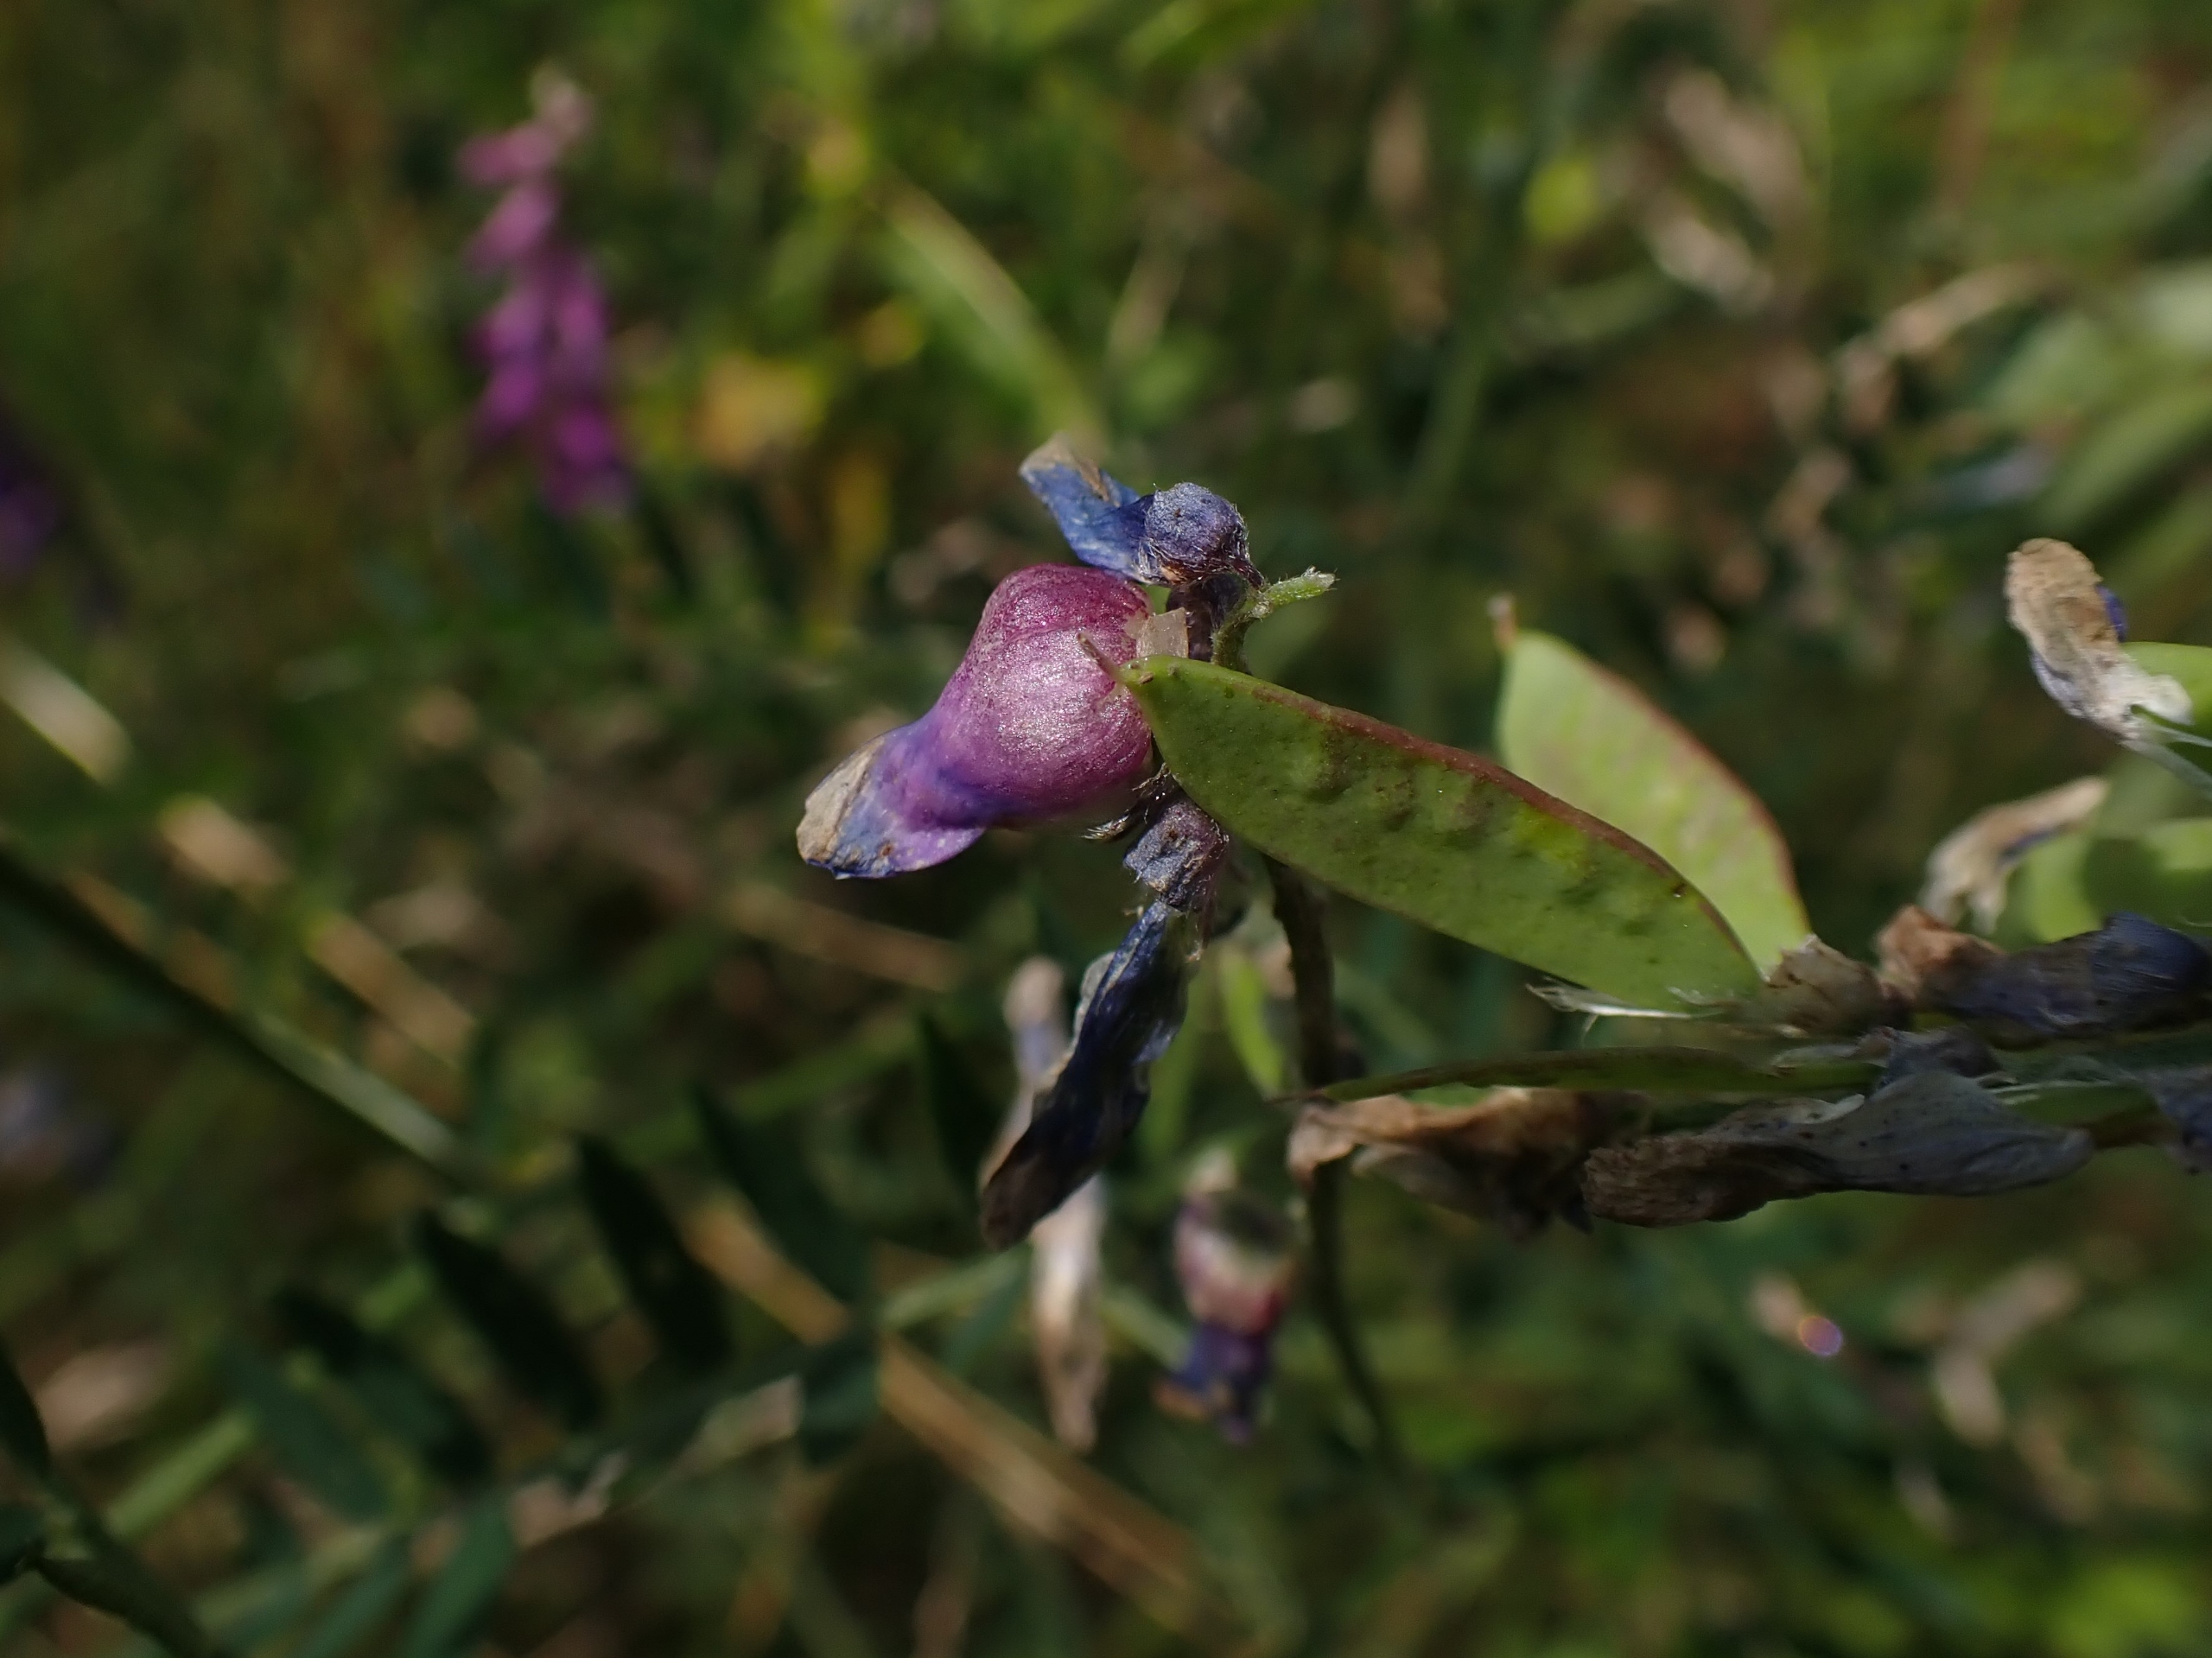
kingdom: Animalia
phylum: Arthropoda
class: Insecta
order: Diptera
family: Cecidomyiidae
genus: Contarinia
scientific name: Contarinia craccae
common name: Vikkeblomstgalmyg
